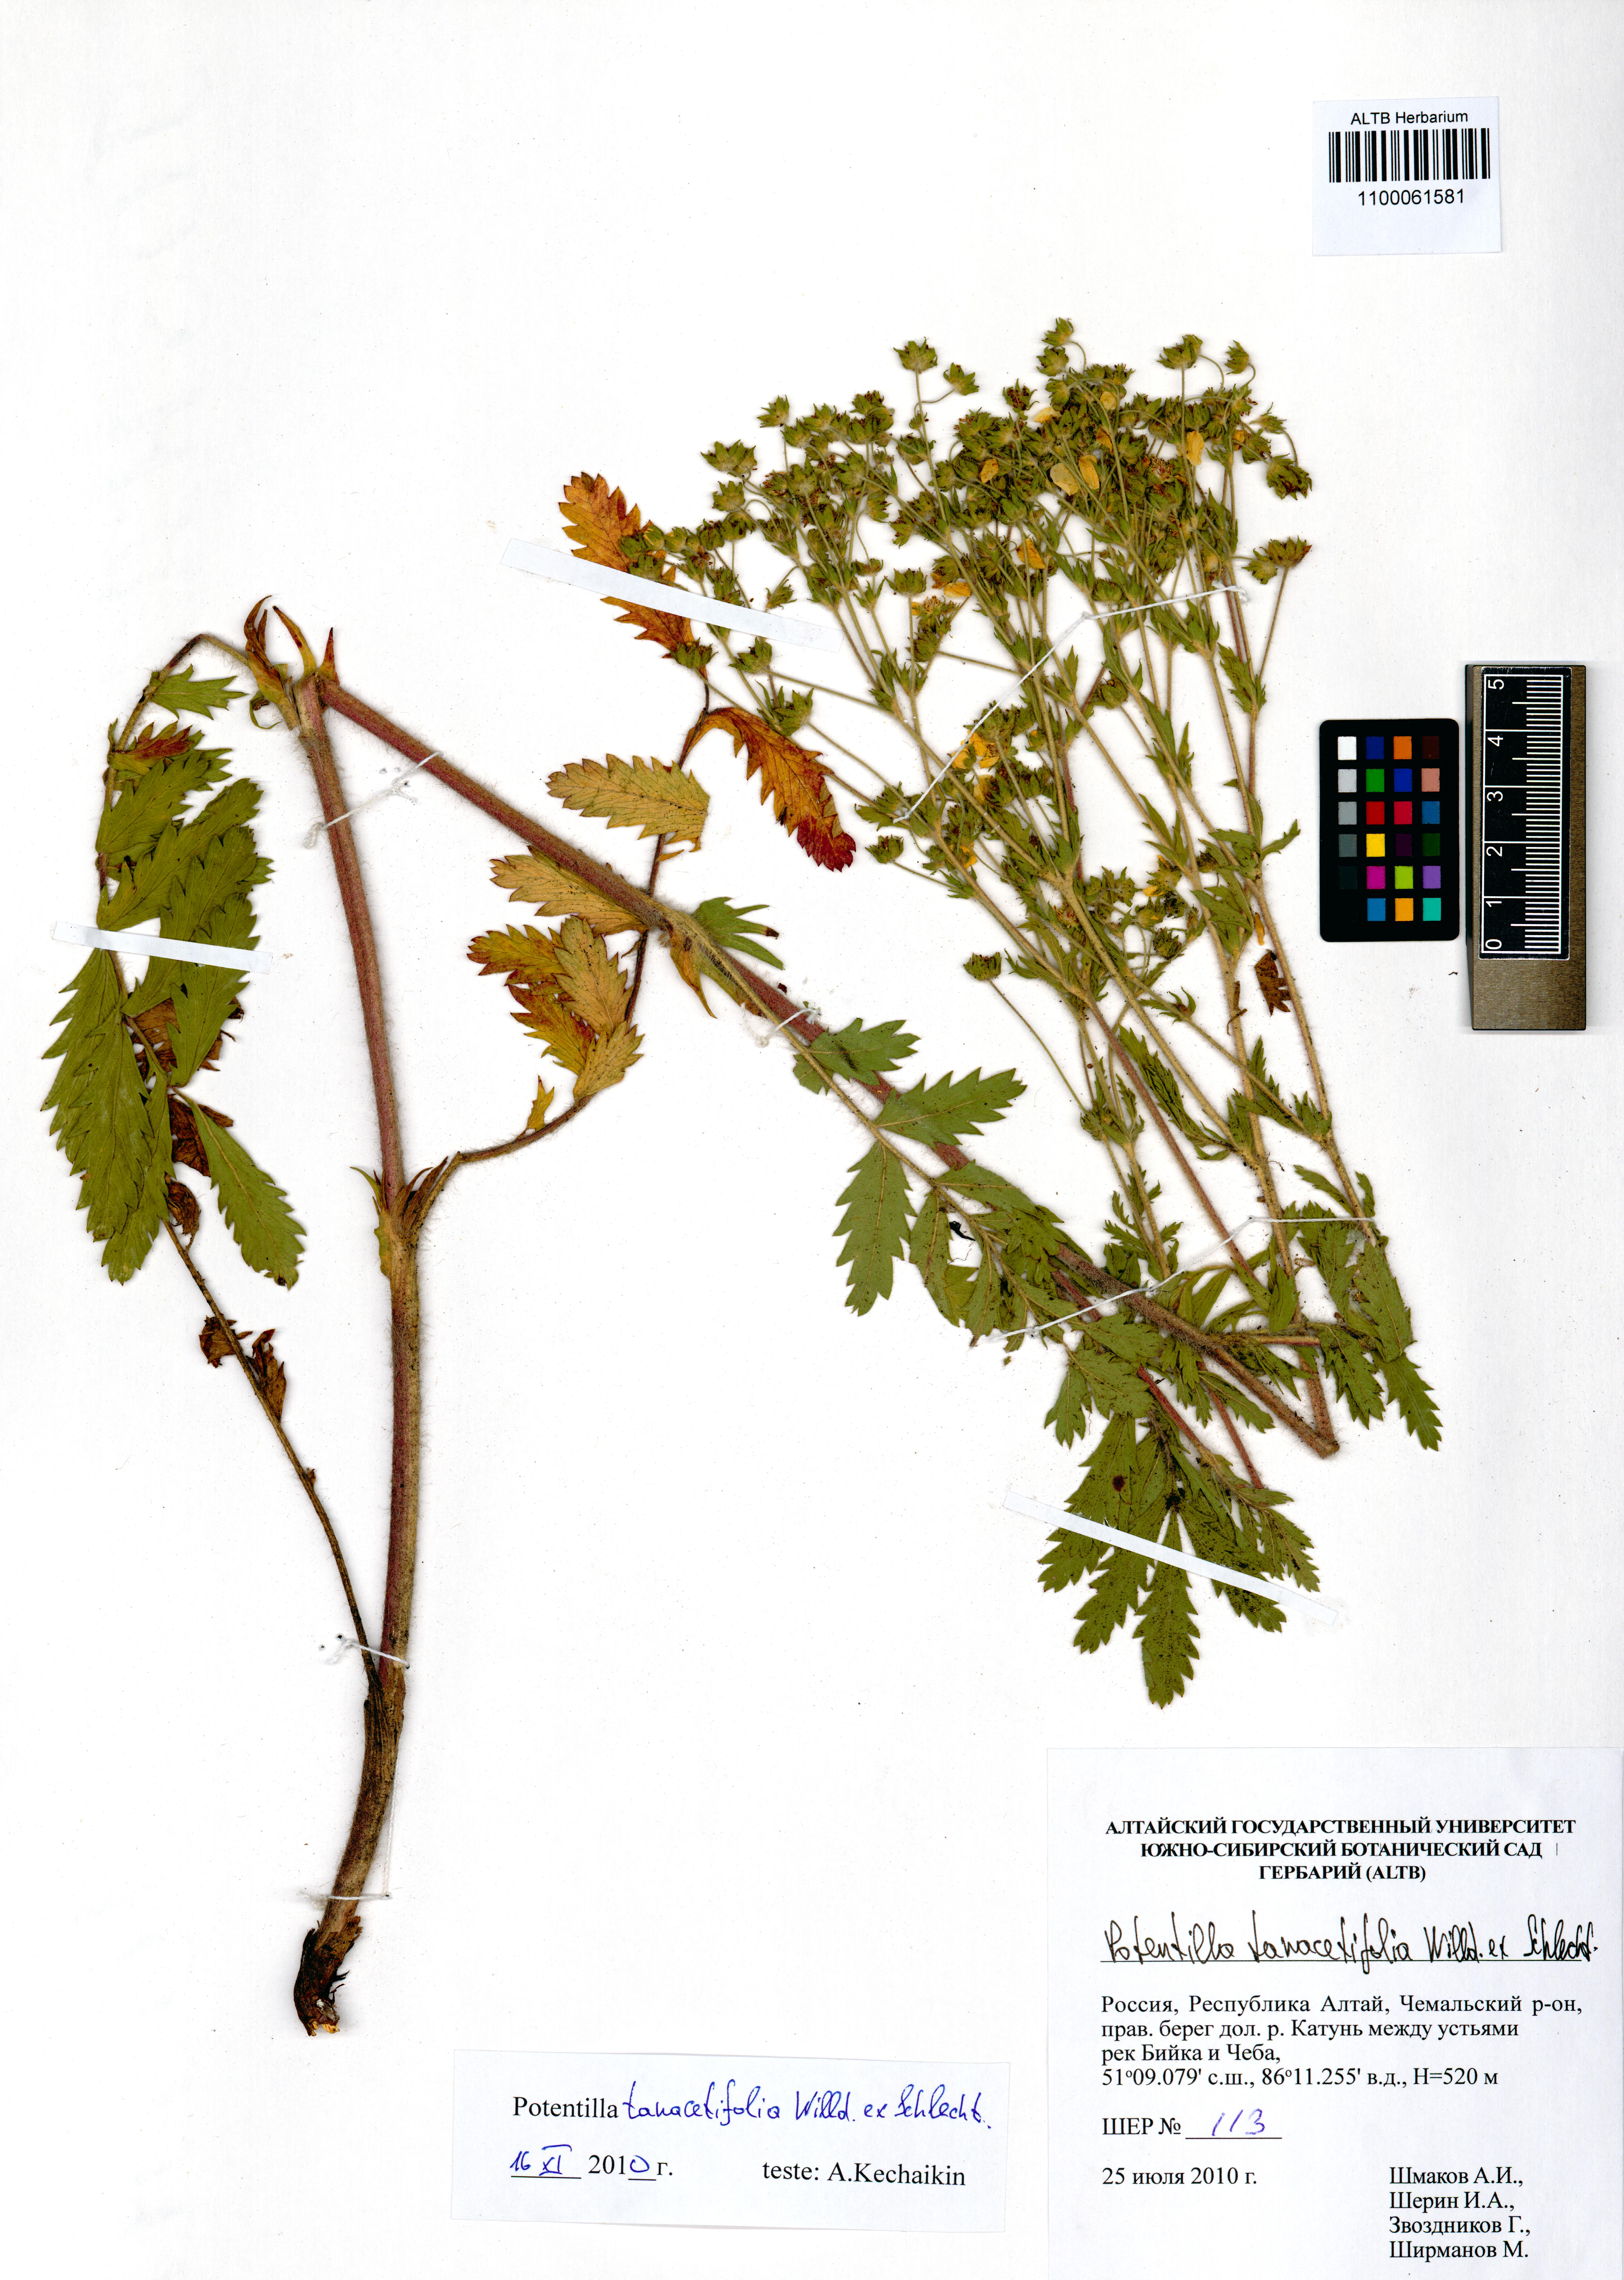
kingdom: Plantae
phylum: Tracheophyta
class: Magnoliopsida
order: Rosales
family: Rosaceae
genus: Potentilla
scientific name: Potentilla tanacetifolia
